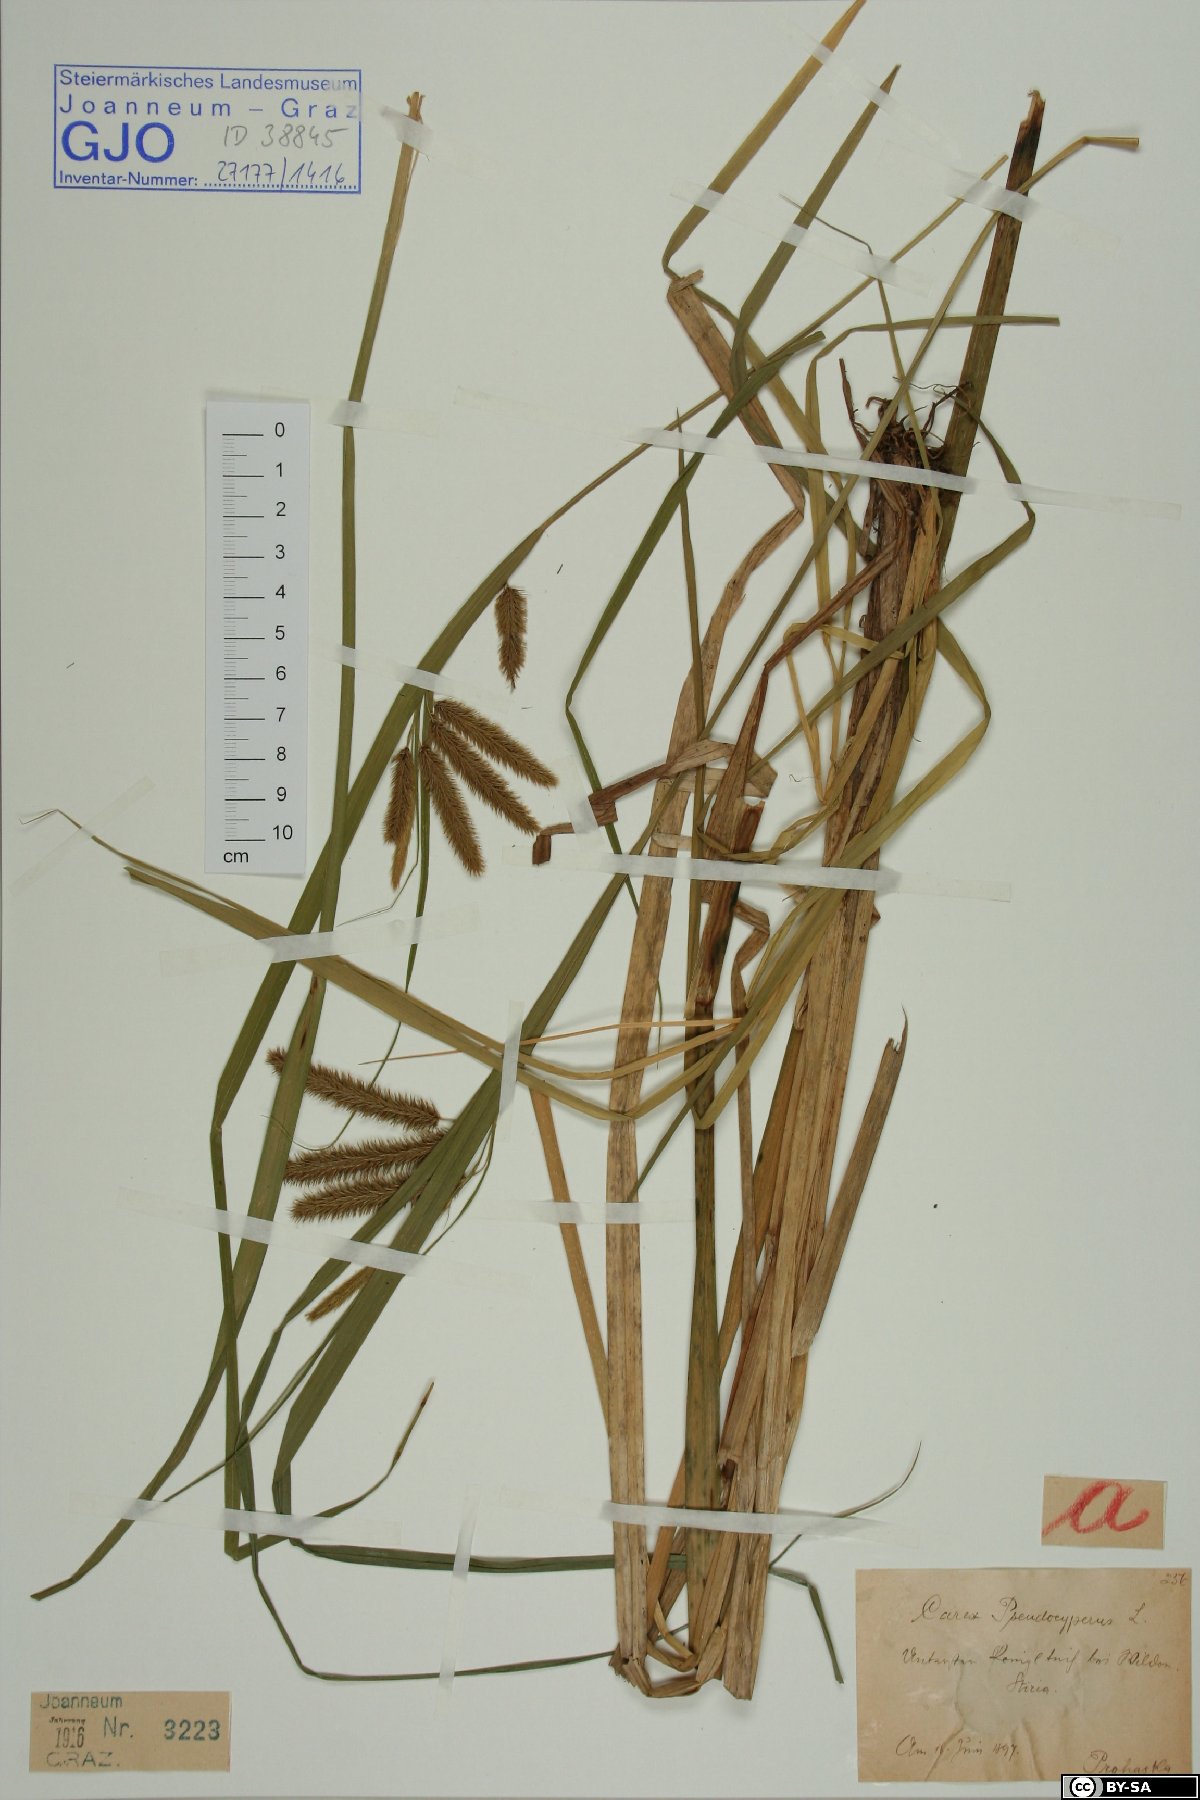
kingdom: Plantae
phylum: Tracheophyta
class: Liliopsida
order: Poales
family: Cyperaceae
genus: Carex
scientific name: Carex pseudocyperus
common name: Cyperus sedge
